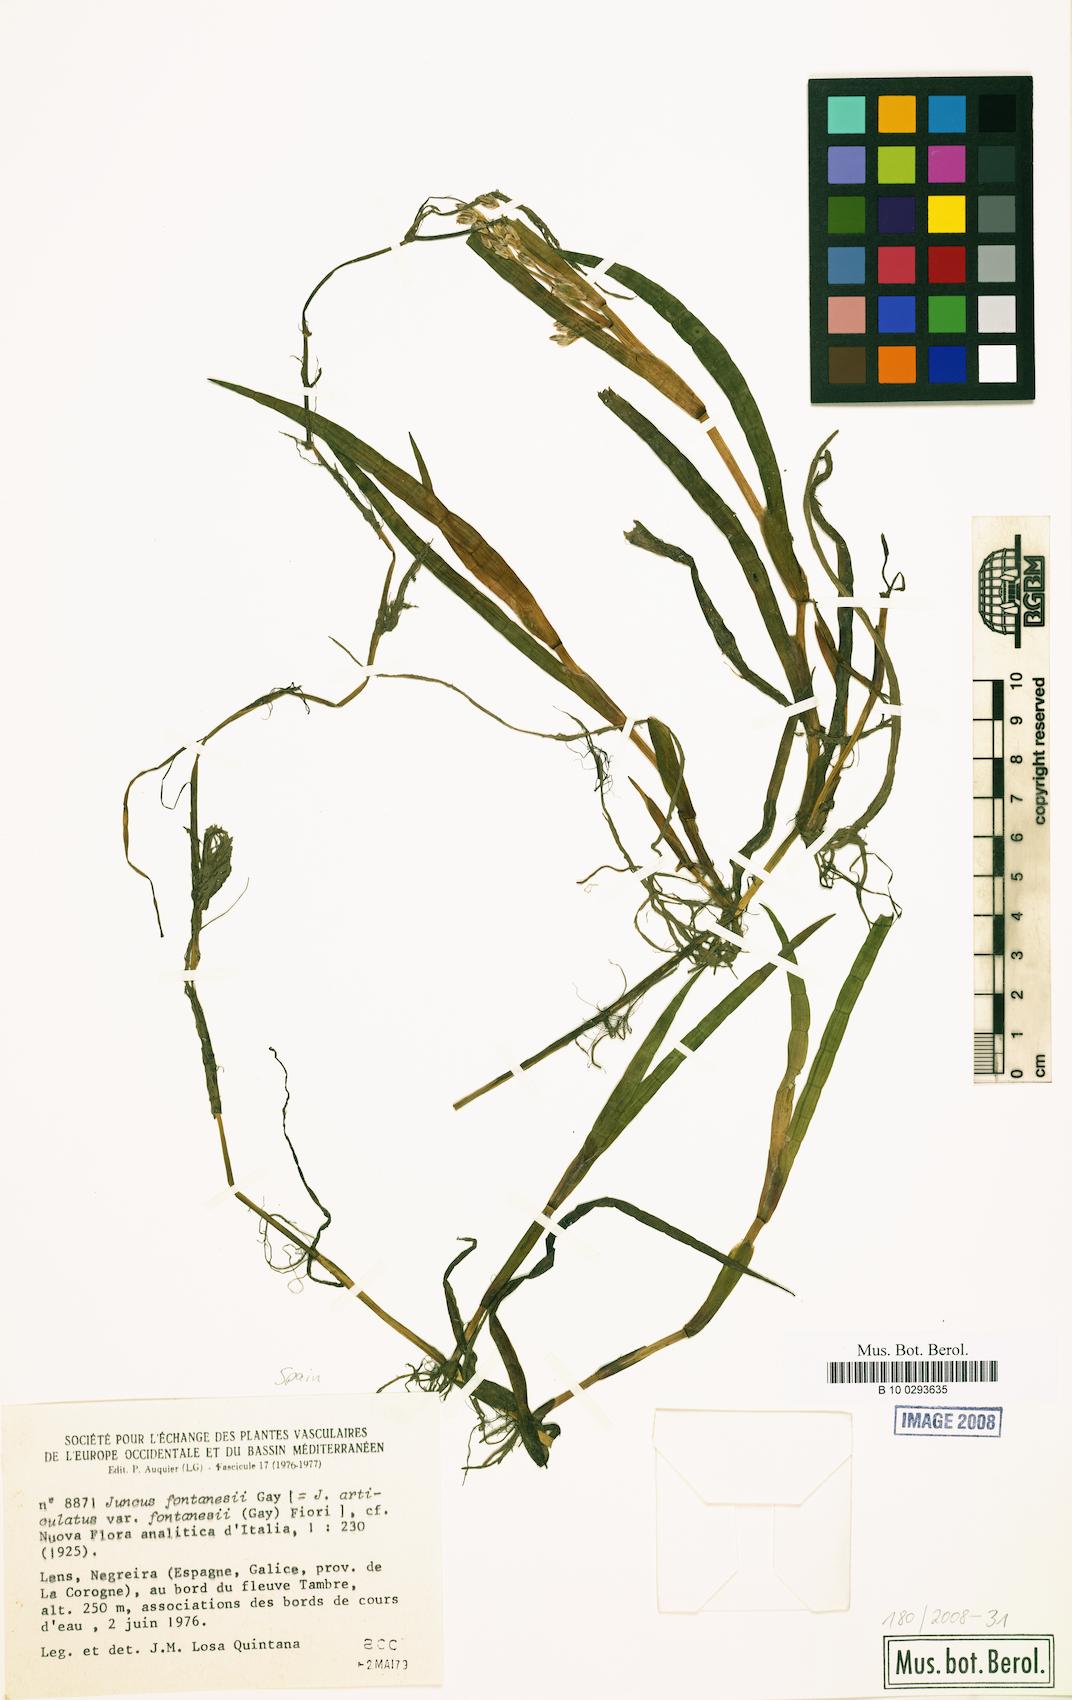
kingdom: Plantae
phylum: Tracheophyta
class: Liliopsida
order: Poales
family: Juncaceae
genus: Juncus
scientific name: Juncus fontanesii
